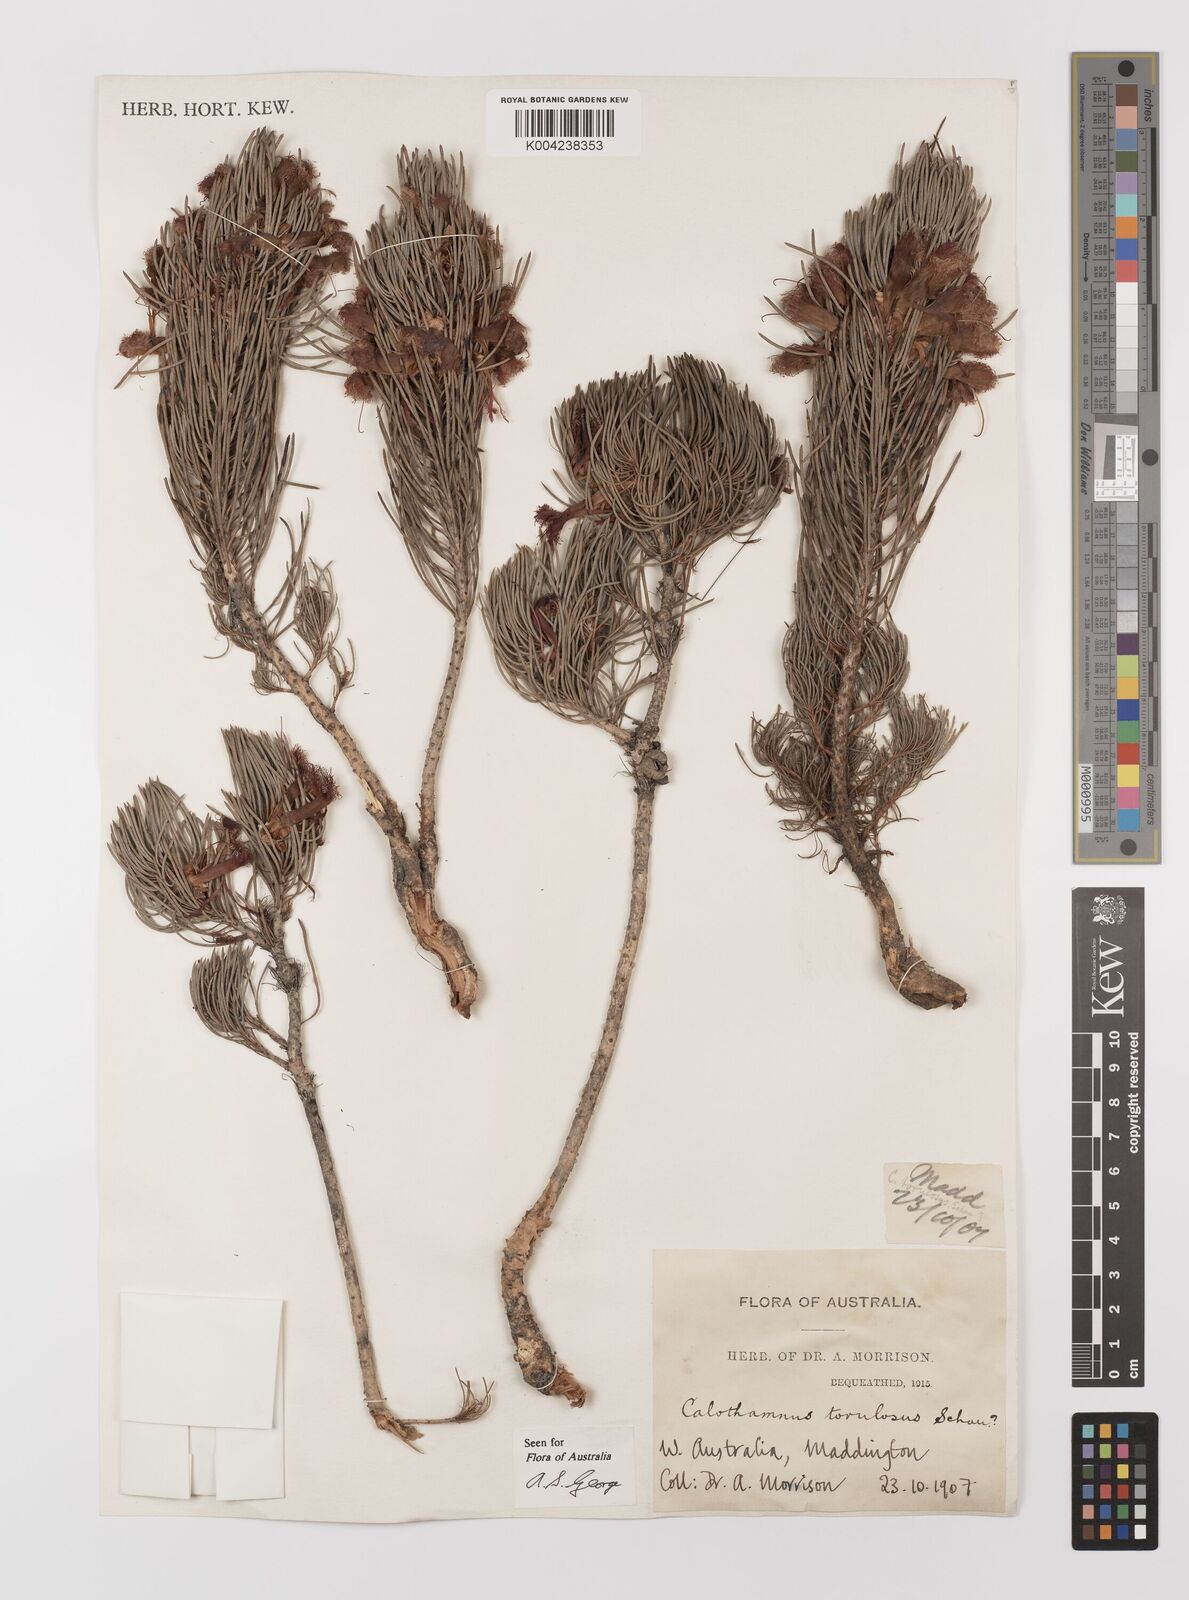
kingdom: Plantae
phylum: Tracheophyta
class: Magnoliopsida
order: Myrtales
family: Myrtaceae
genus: Melaleuca
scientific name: Melaleuca torulosa
